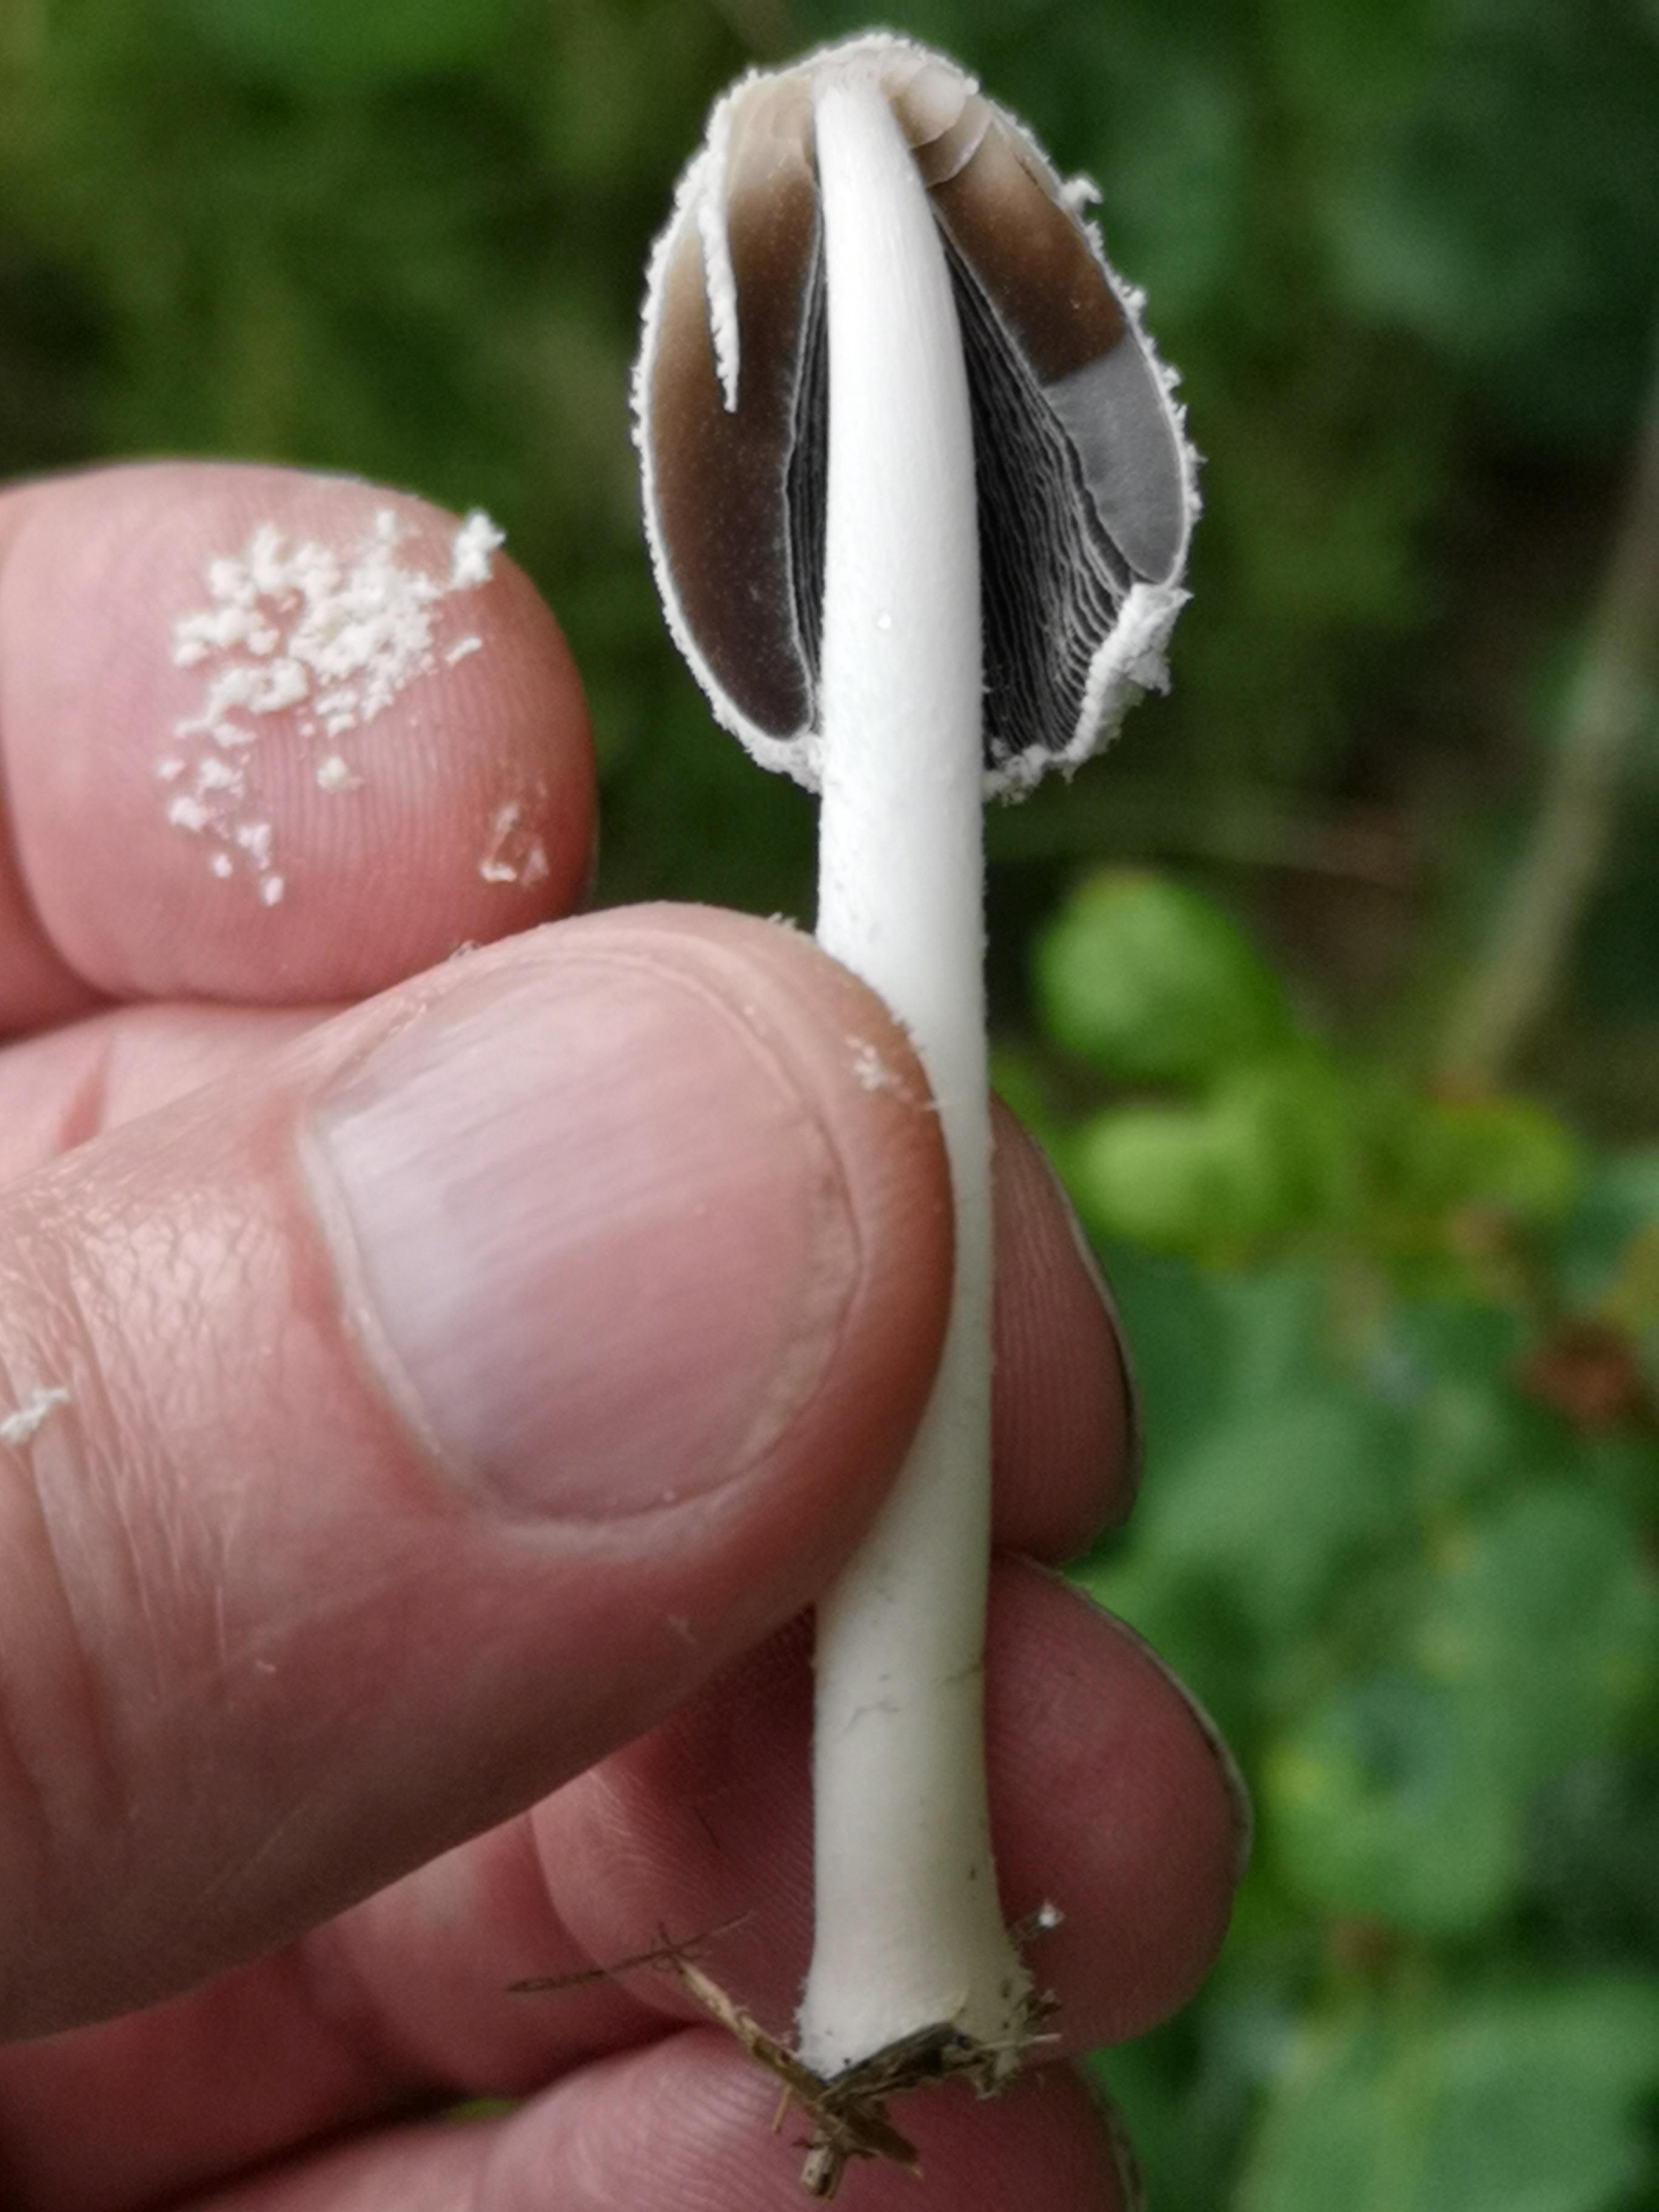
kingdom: Fungi
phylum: Basidiomycota
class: Agaricomycetes
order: Agaricales
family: Psathyrellaceae
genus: Coprinopsis
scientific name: Coprinopsis nivea
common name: snehvid blækhat
